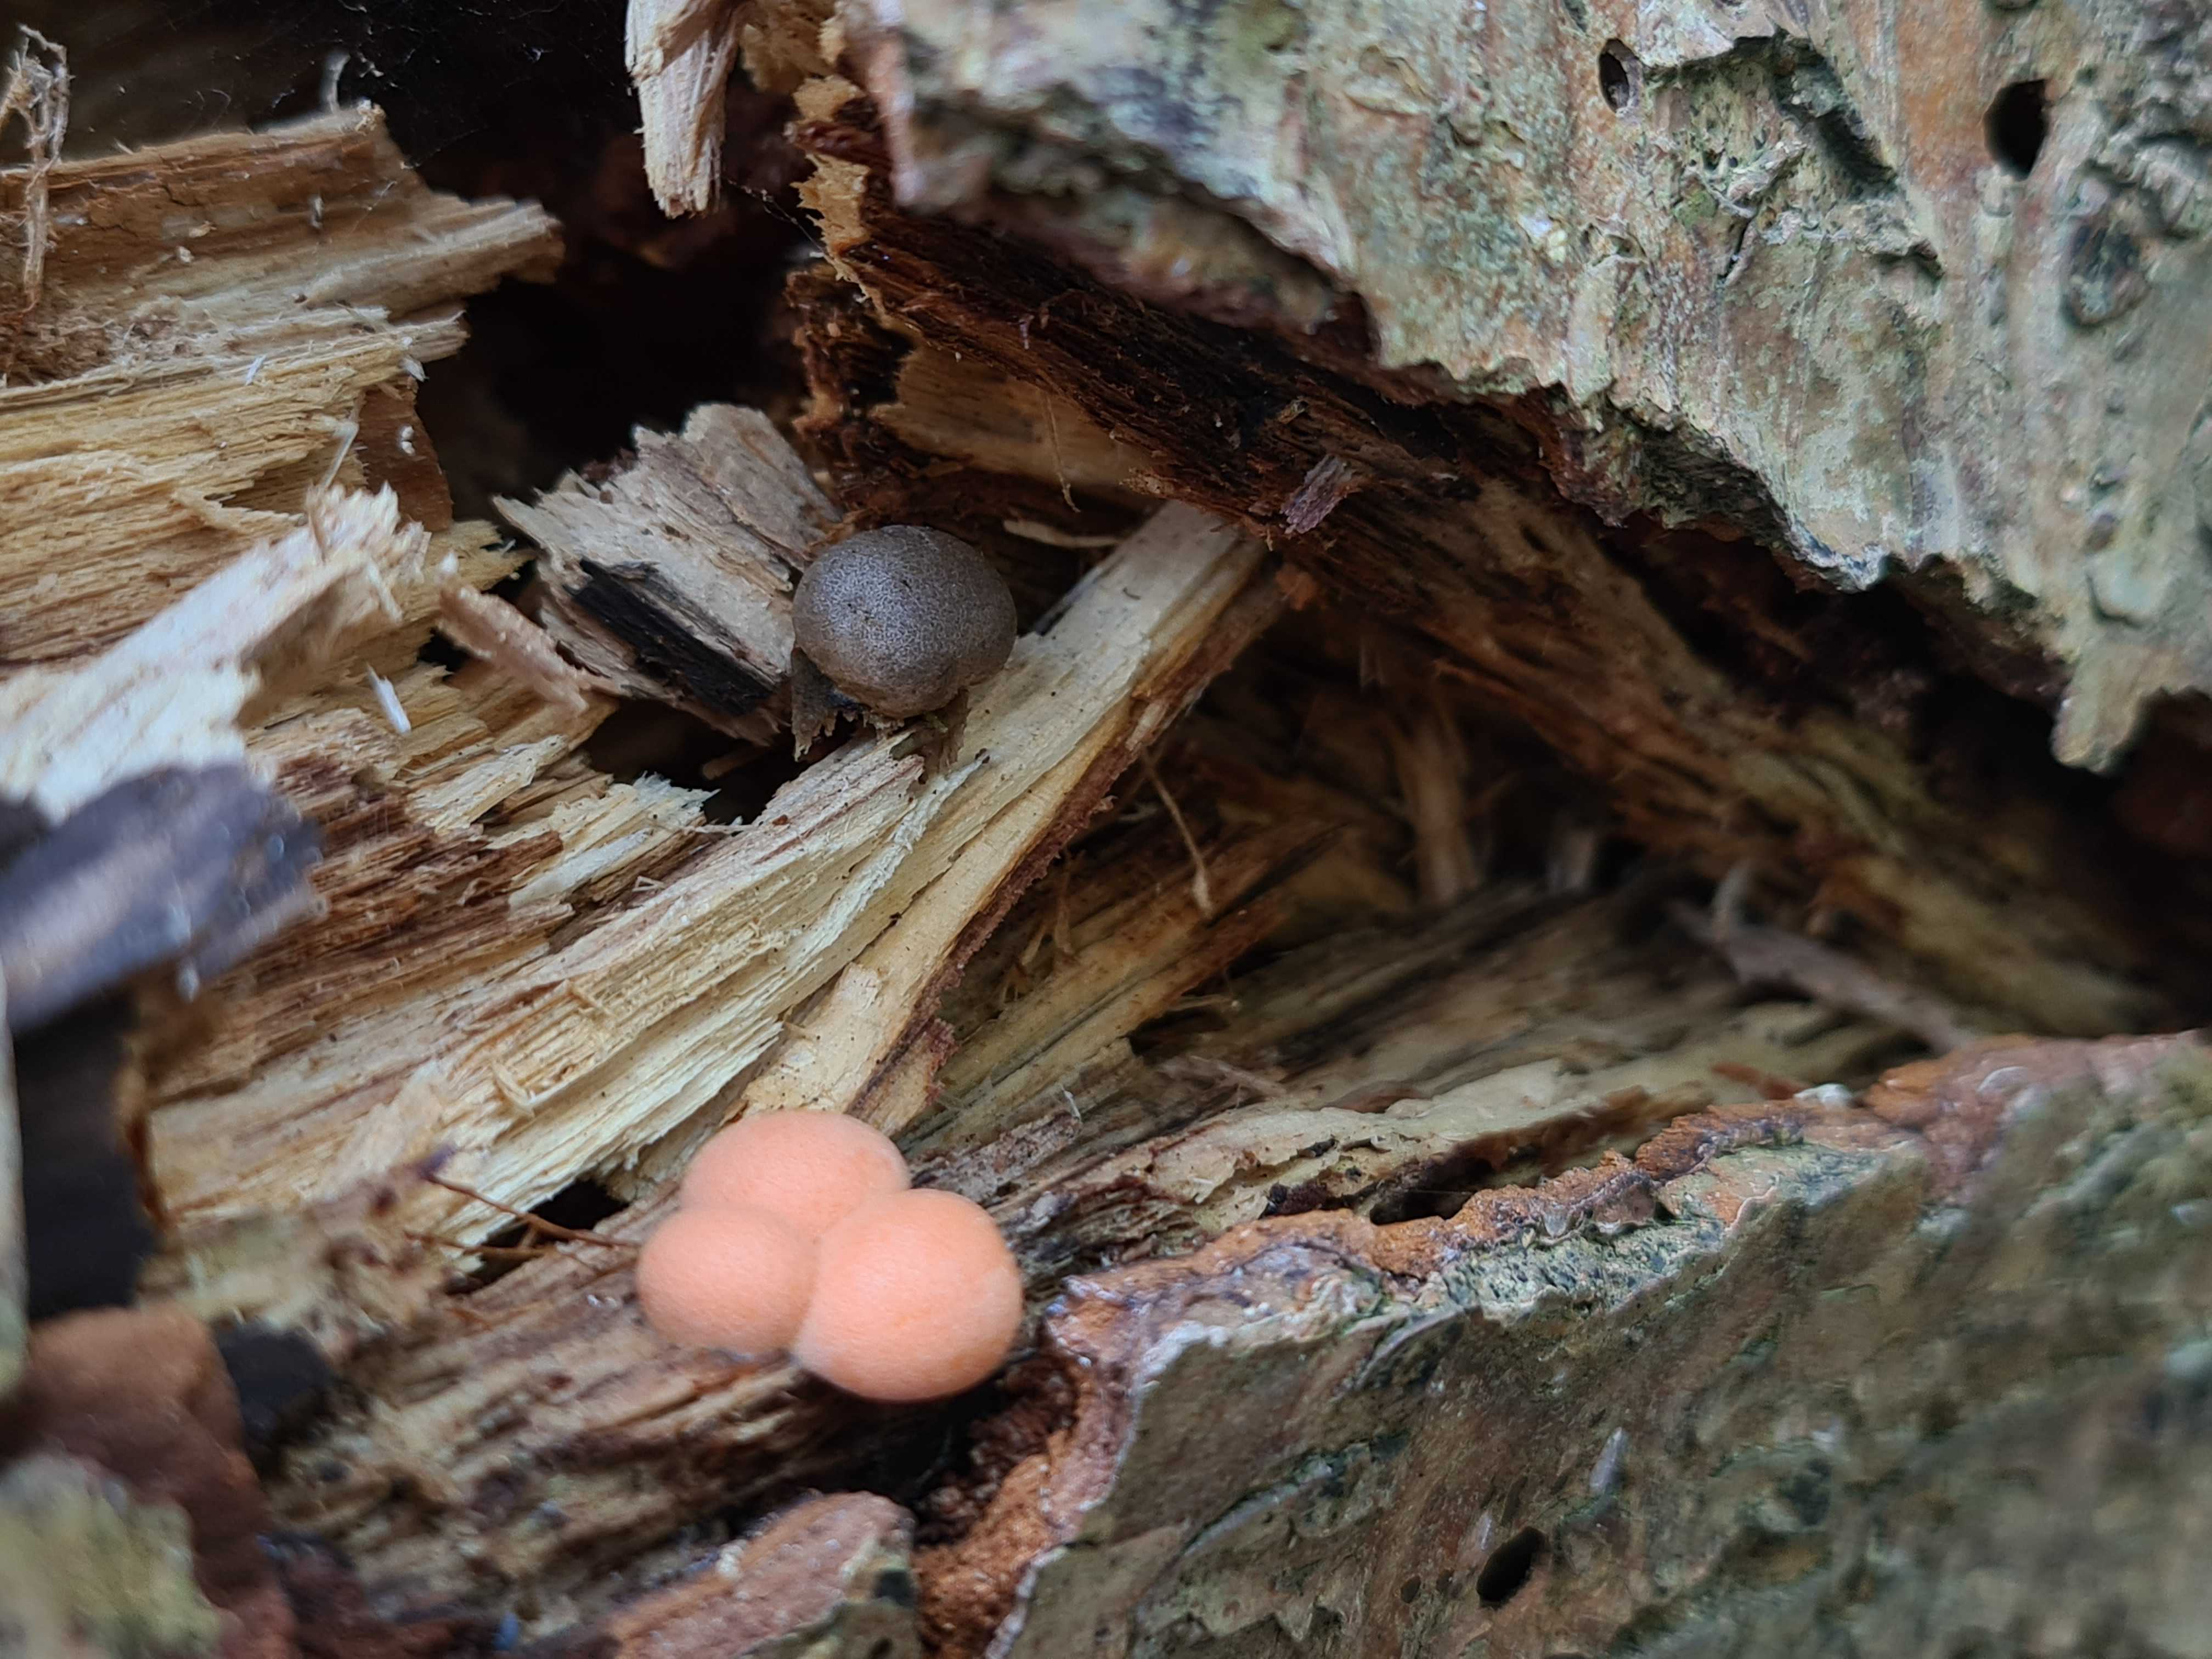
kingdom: Protozoa
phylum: Mycetozoa
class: Myxomycetes
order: Cribrariales
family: Tubiferaceae
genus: Lycogala
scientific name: Lycogala epidendrum
